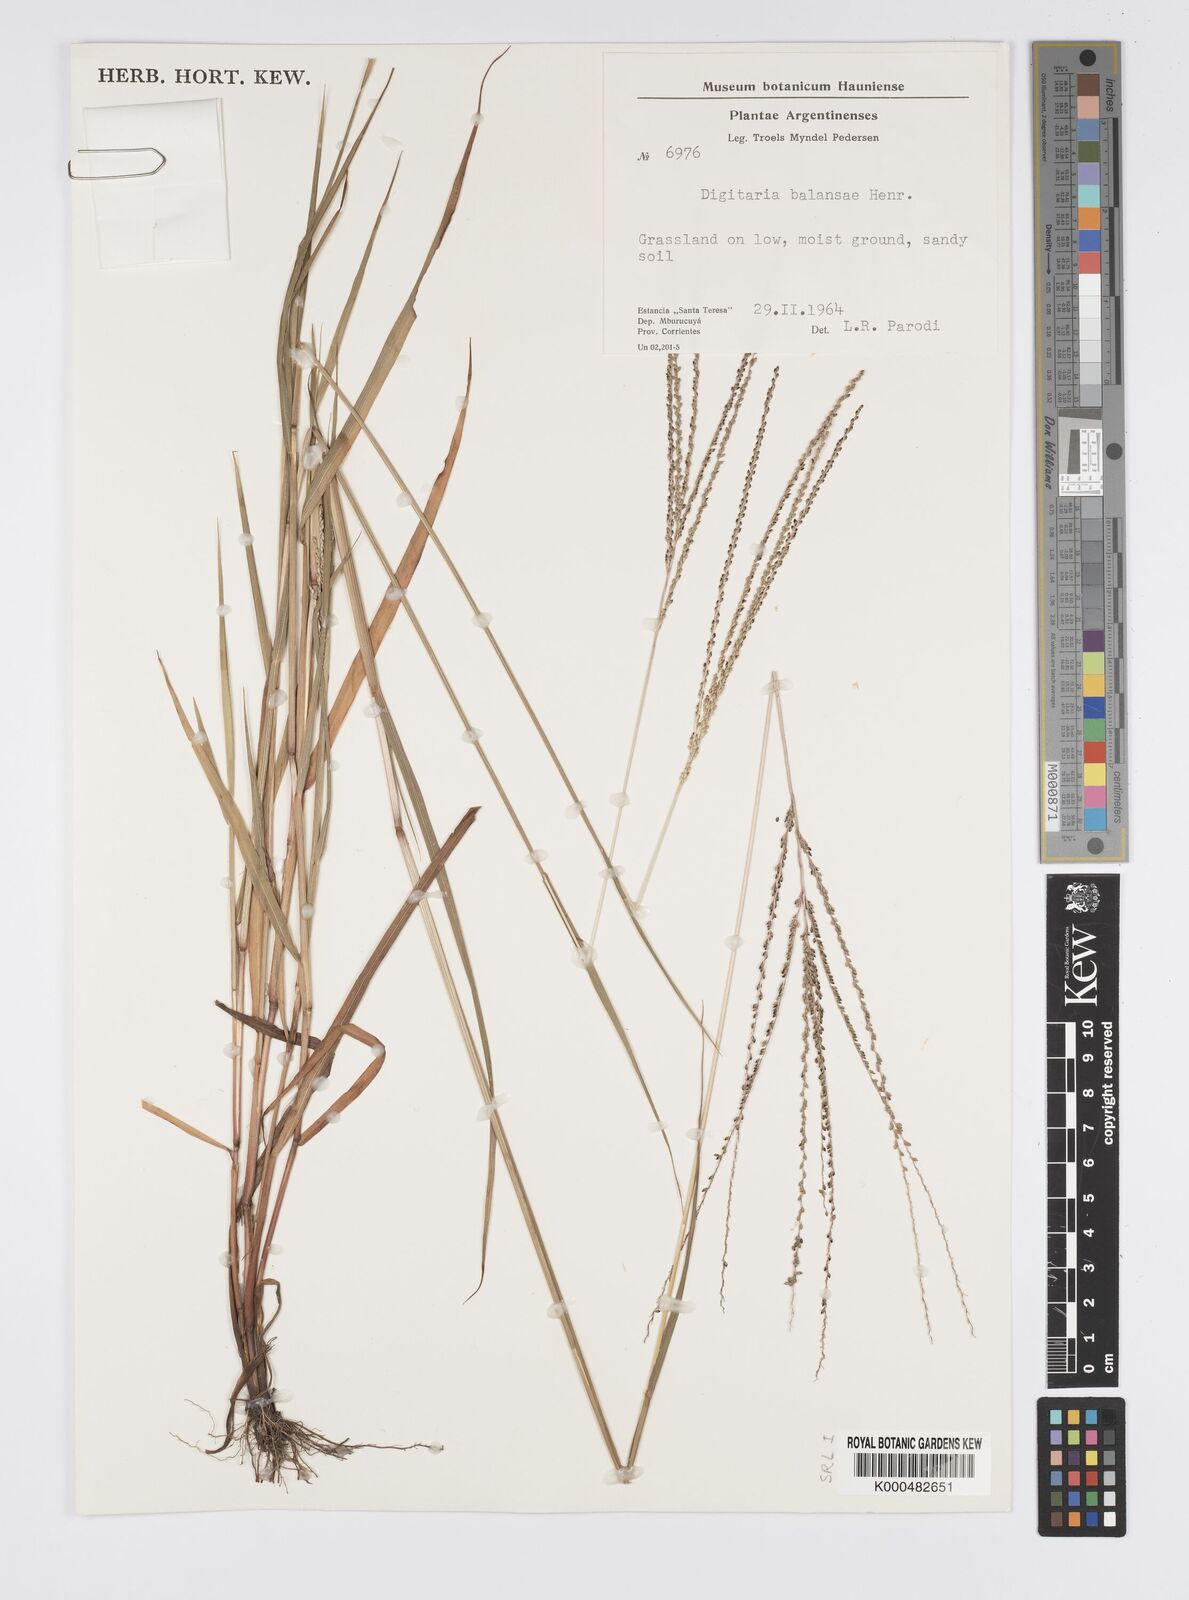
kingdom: Plantae
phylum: Tracheophyta
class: Liliopsida
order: Poales
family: Poaceae
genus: Digitaria
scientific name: Digitaria balansae
